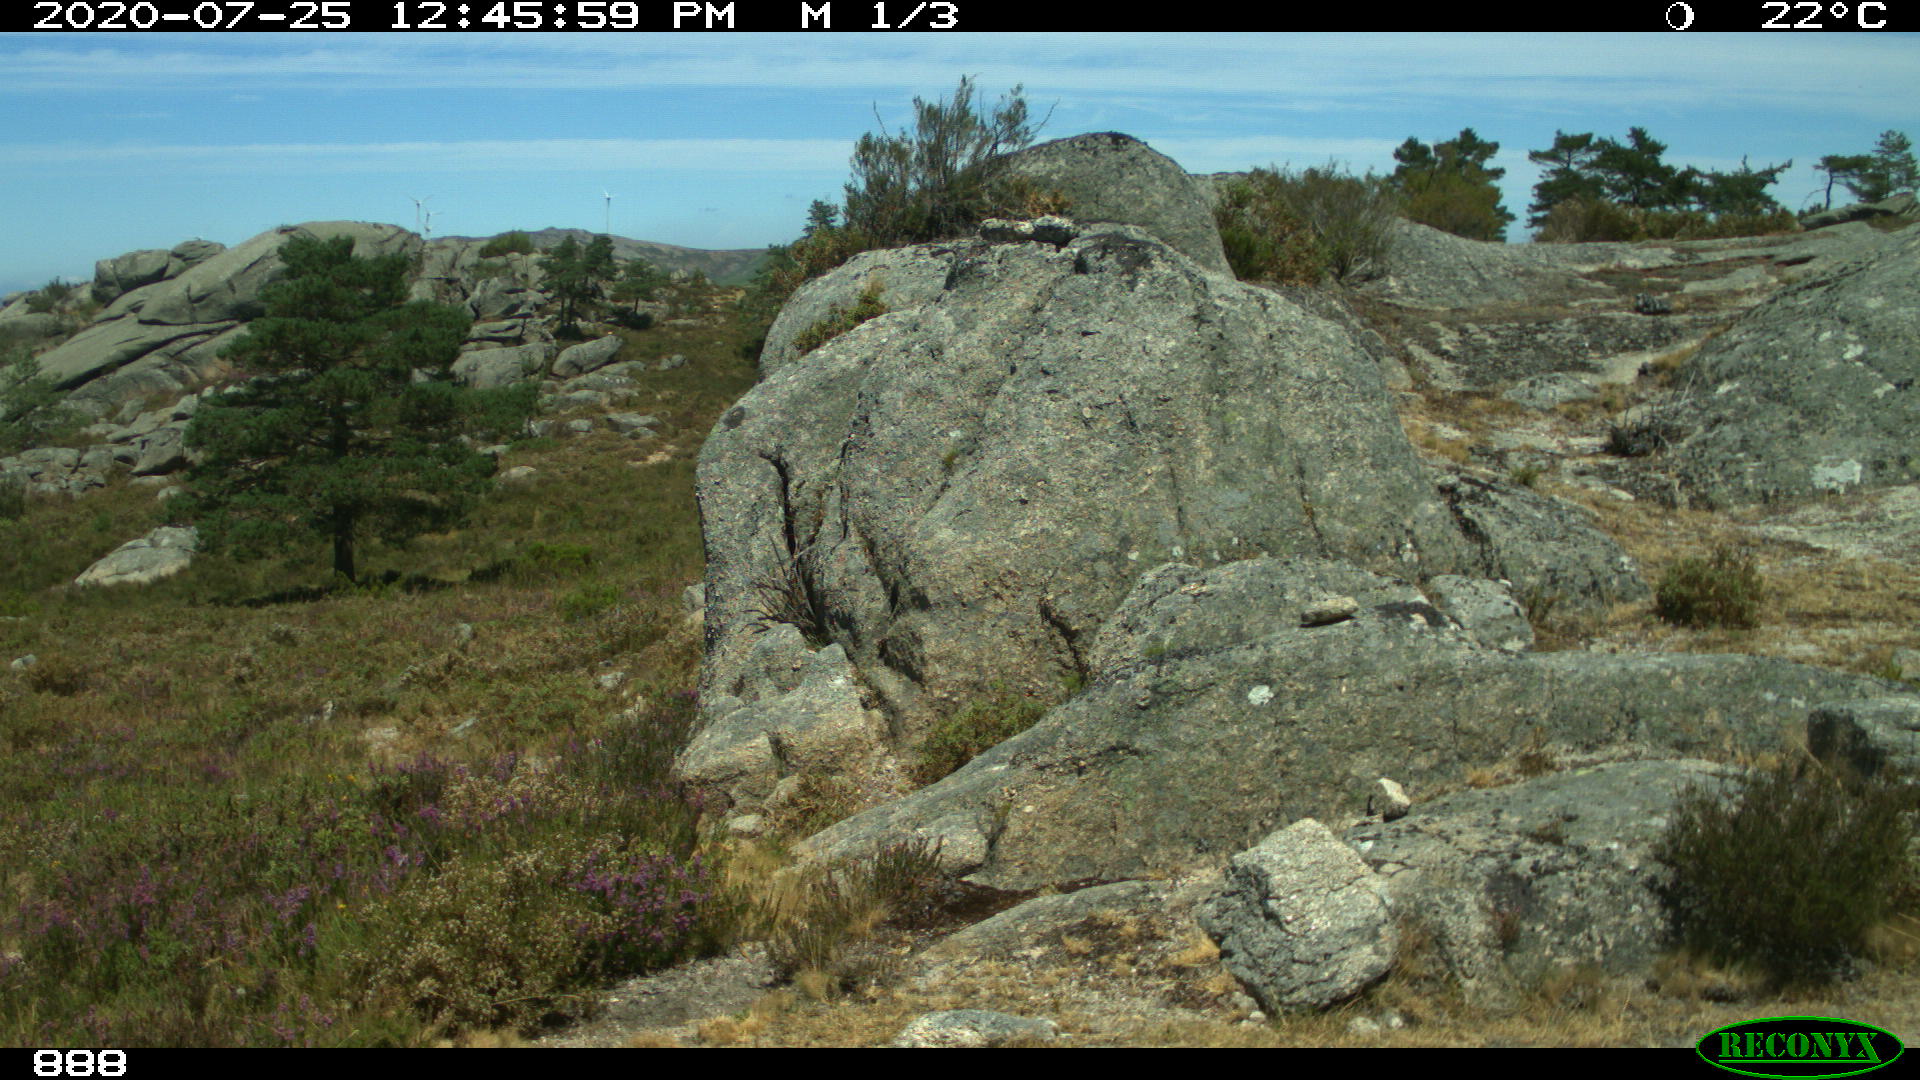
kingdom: Animalia
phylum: Chordata
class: Mammalia
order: Perissodactyla
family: Equidae
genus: Equus
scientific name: Equus caballus
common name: Horse
